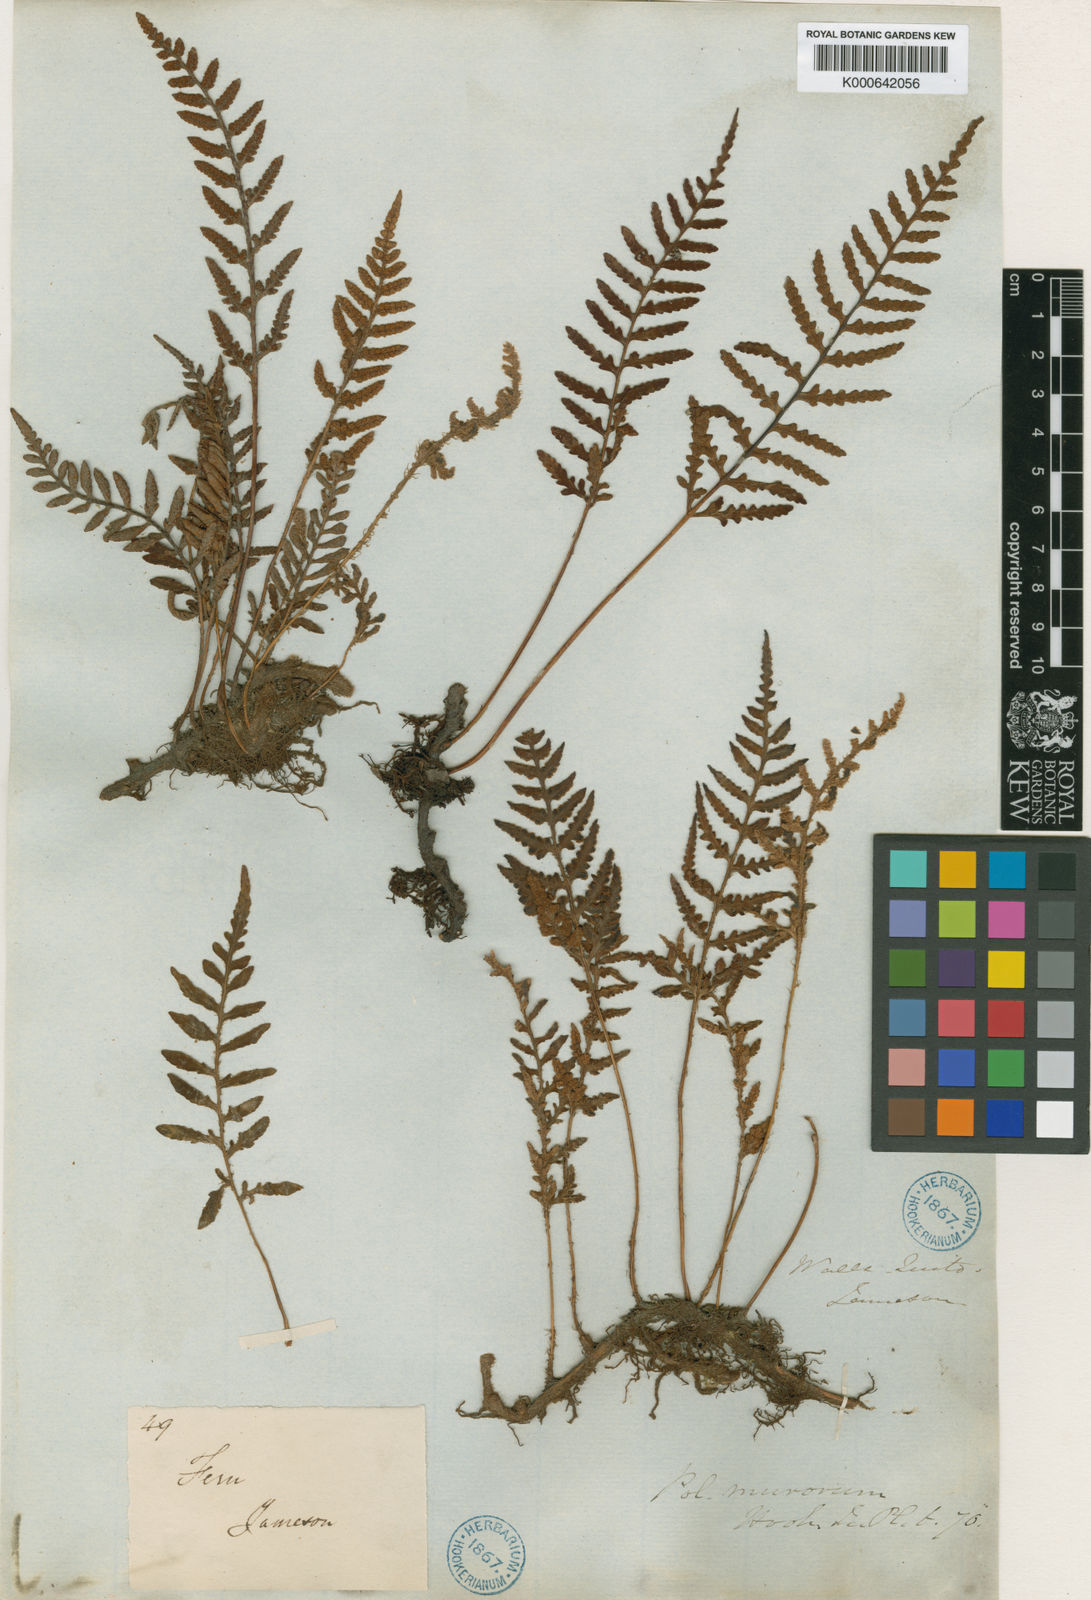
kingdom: Plantae
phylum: Tracheophyta
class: Polypodiopsida
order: Polypodiales
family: Polypodiaceae
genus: Pleopeltis
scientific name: Pleopeltis murora
